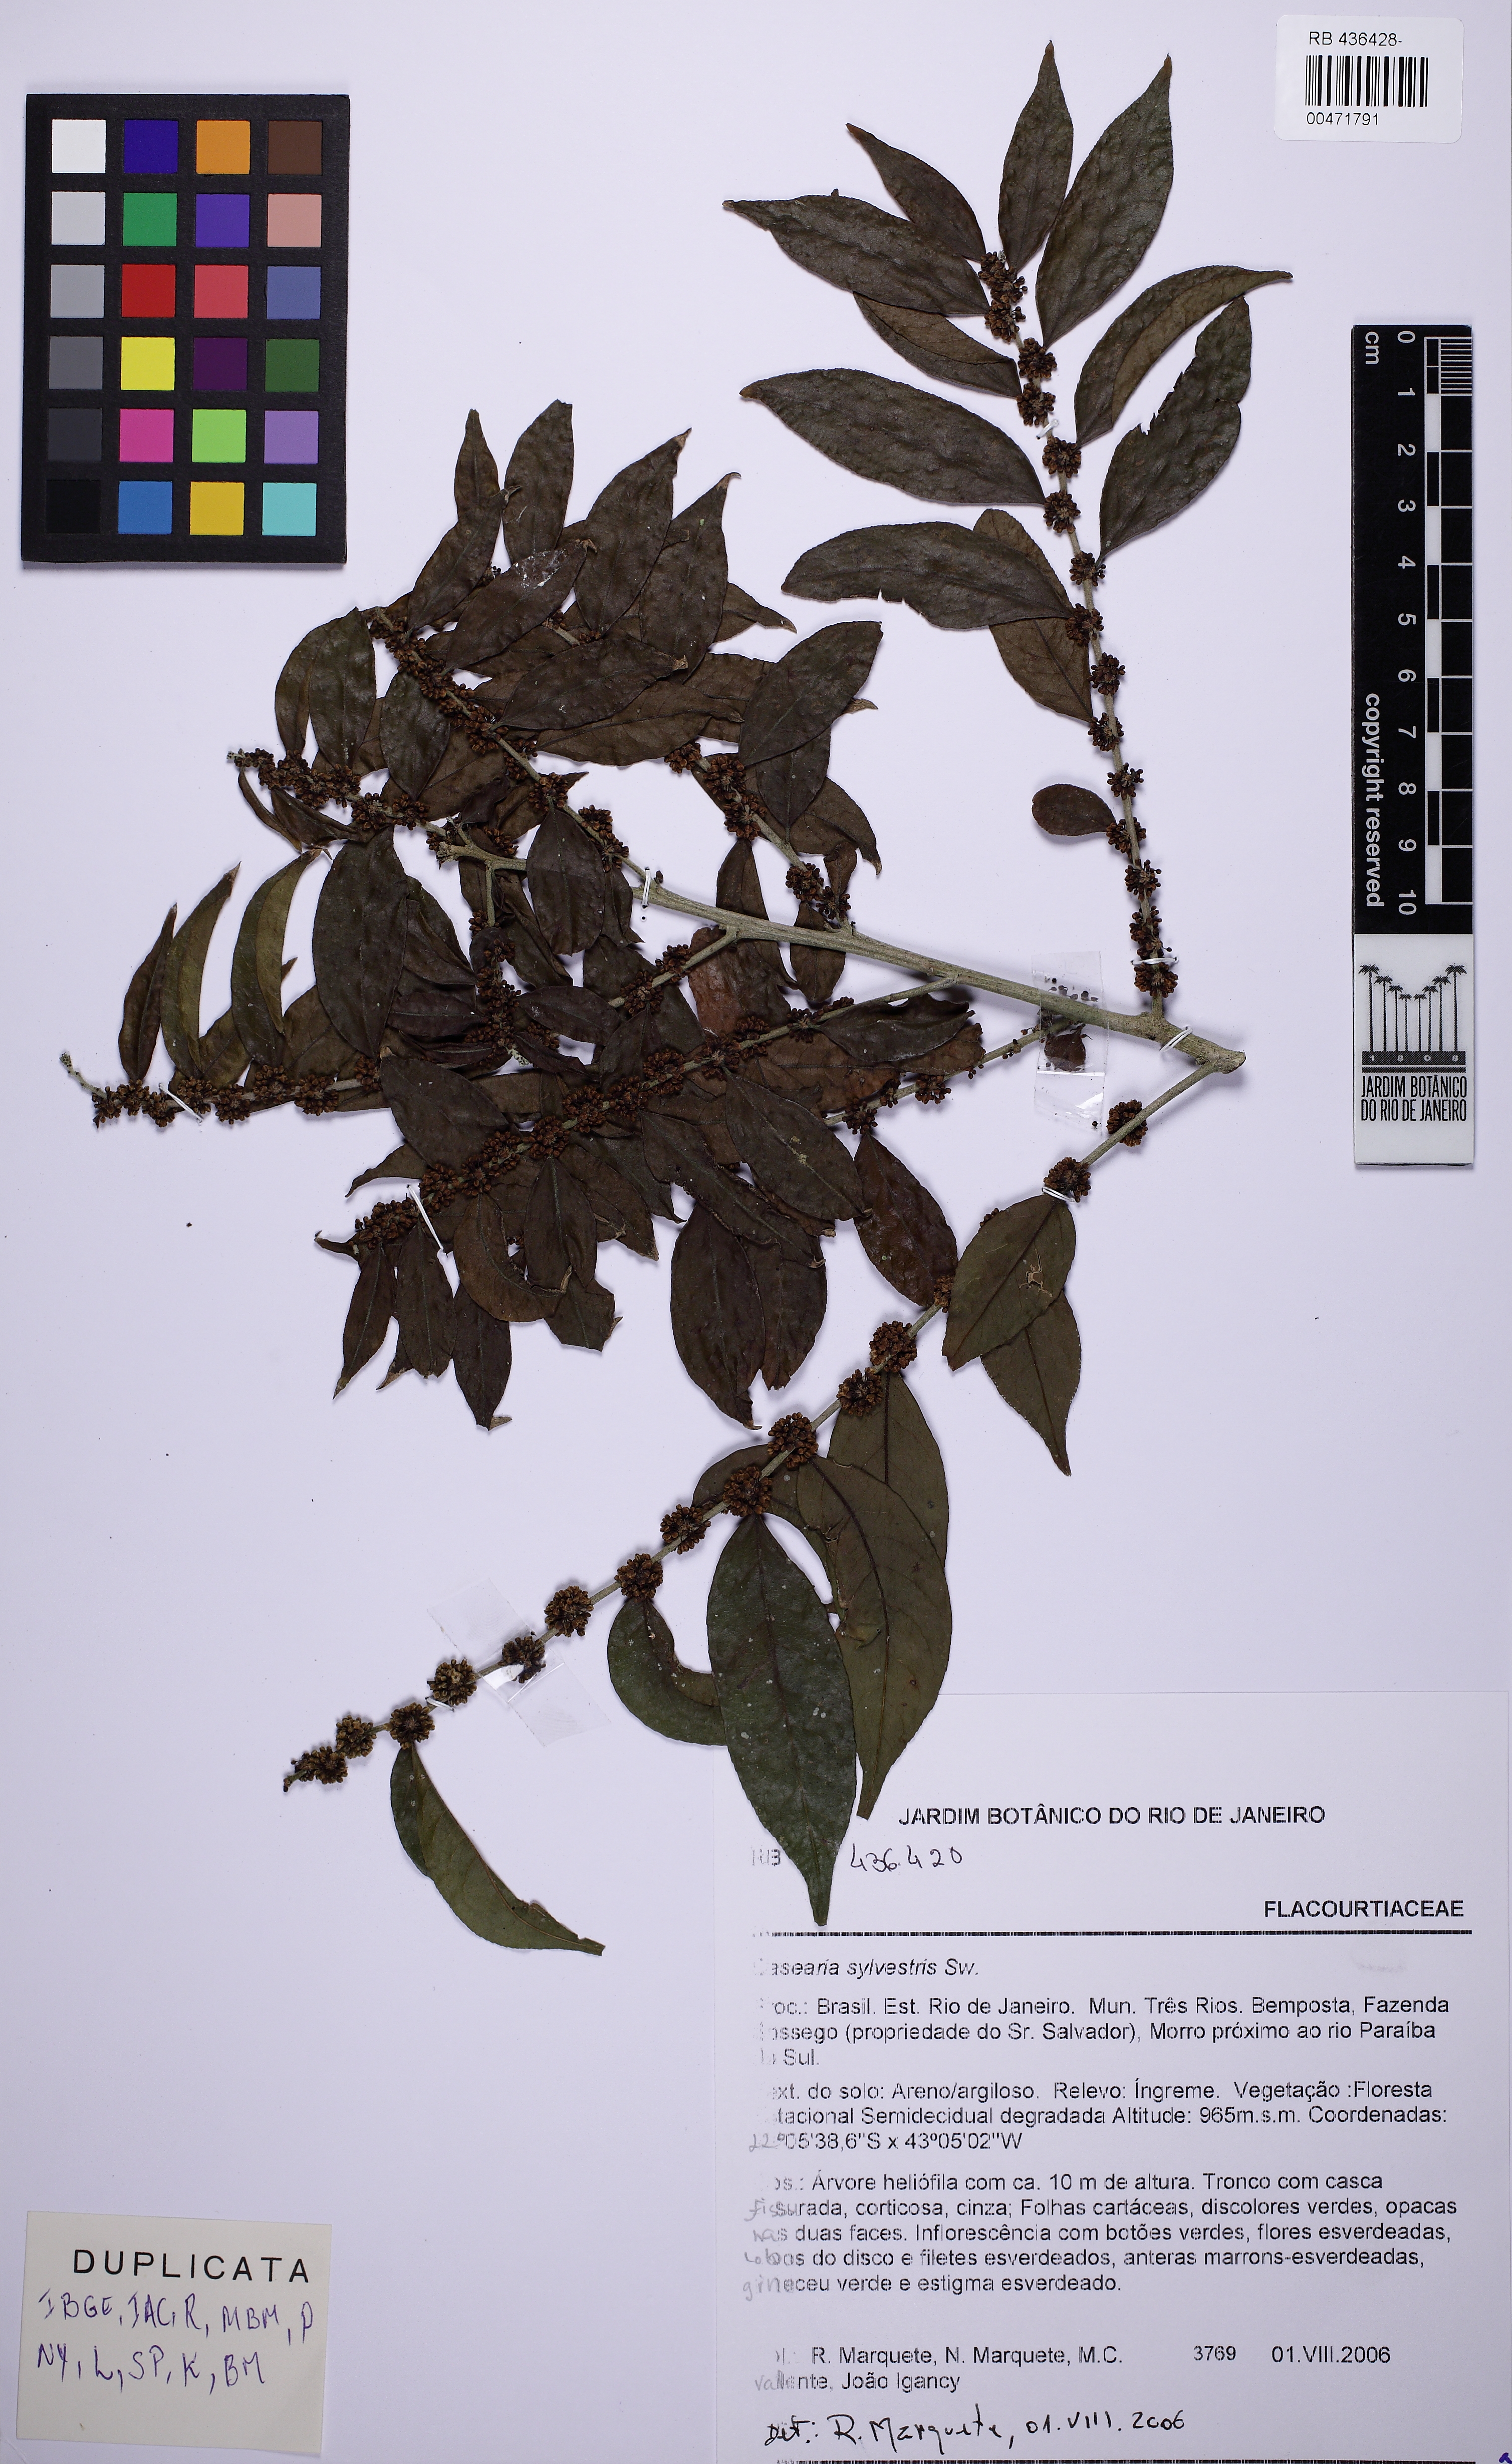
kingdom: Plantae
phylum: Tracheophyta
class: Magnoliopsida
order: Malpighiales
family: Salicaceae
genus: Casearia
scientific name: Casearia sylvestris
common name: Wild sage
